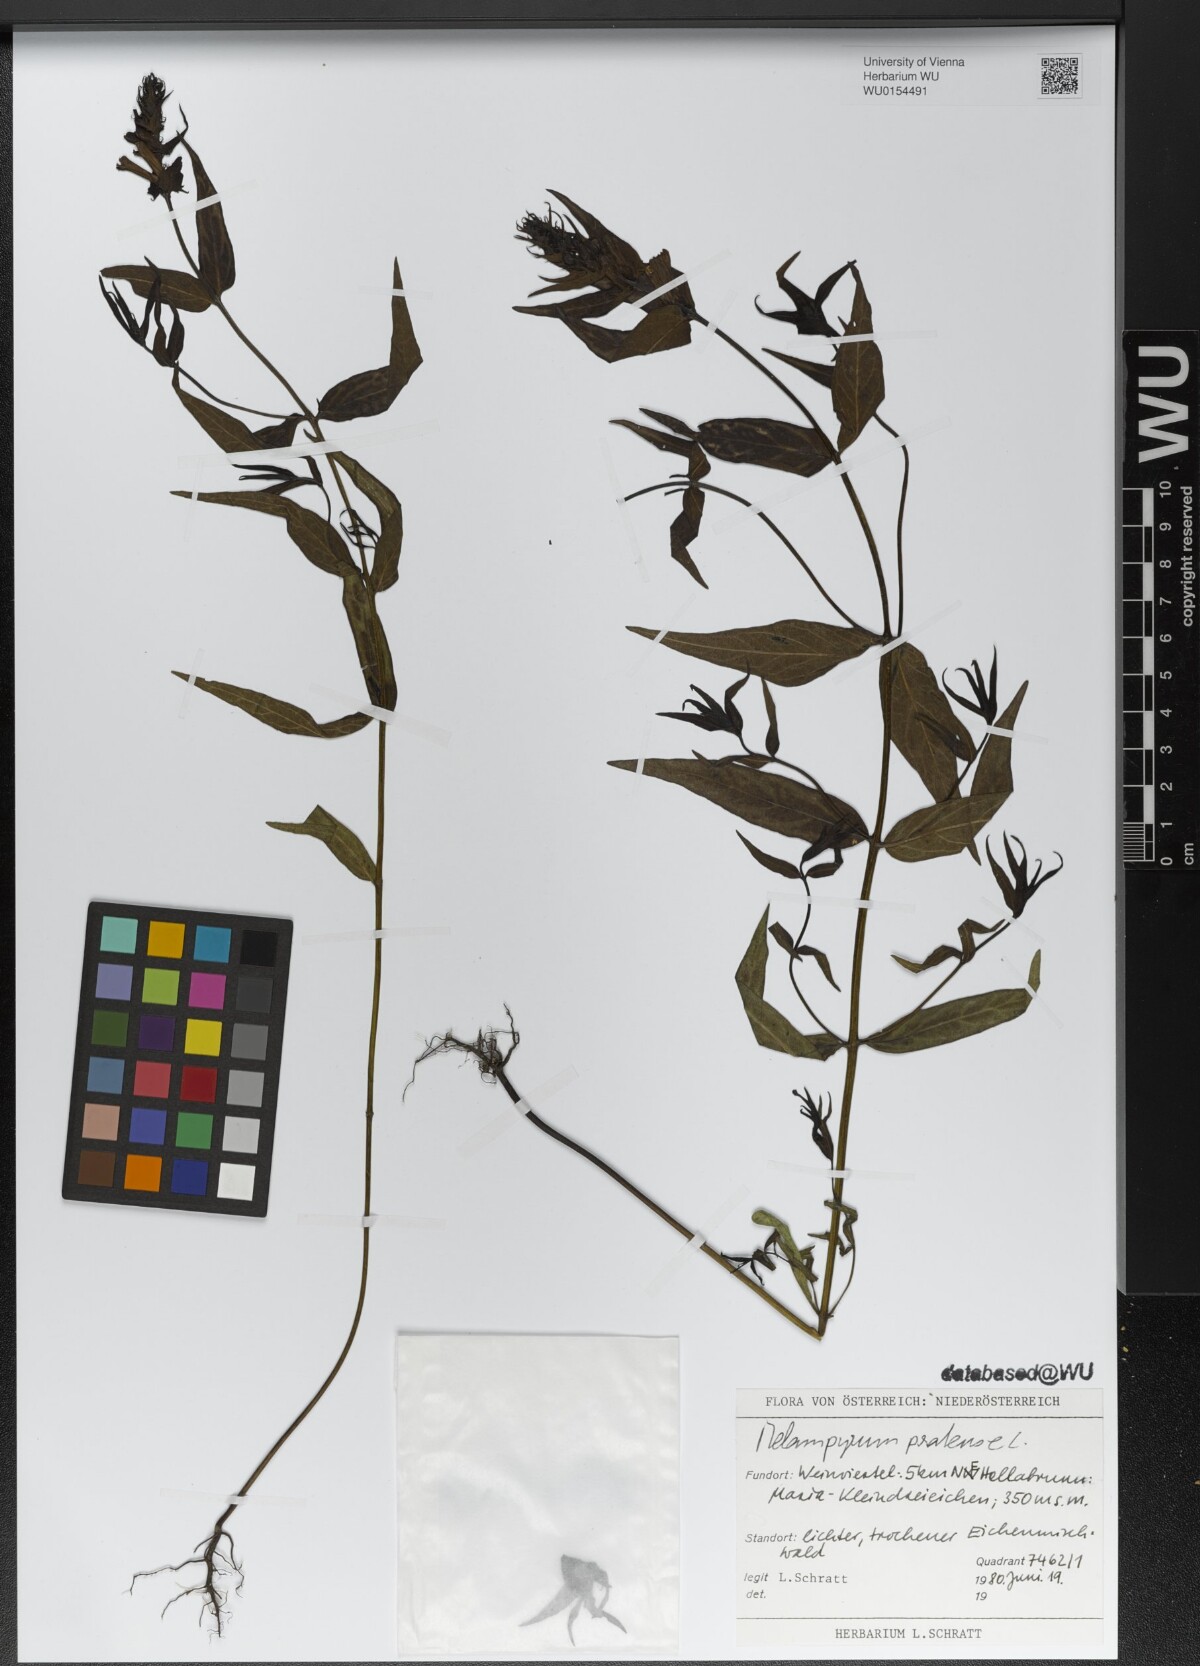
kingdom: Plantae
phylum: Tracheophyta
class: Magnoliopsida
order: Lamiales
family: Orobanchaceae
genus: Melampyrum
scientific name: Melampyrum pratense
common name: Common cow-wheat
